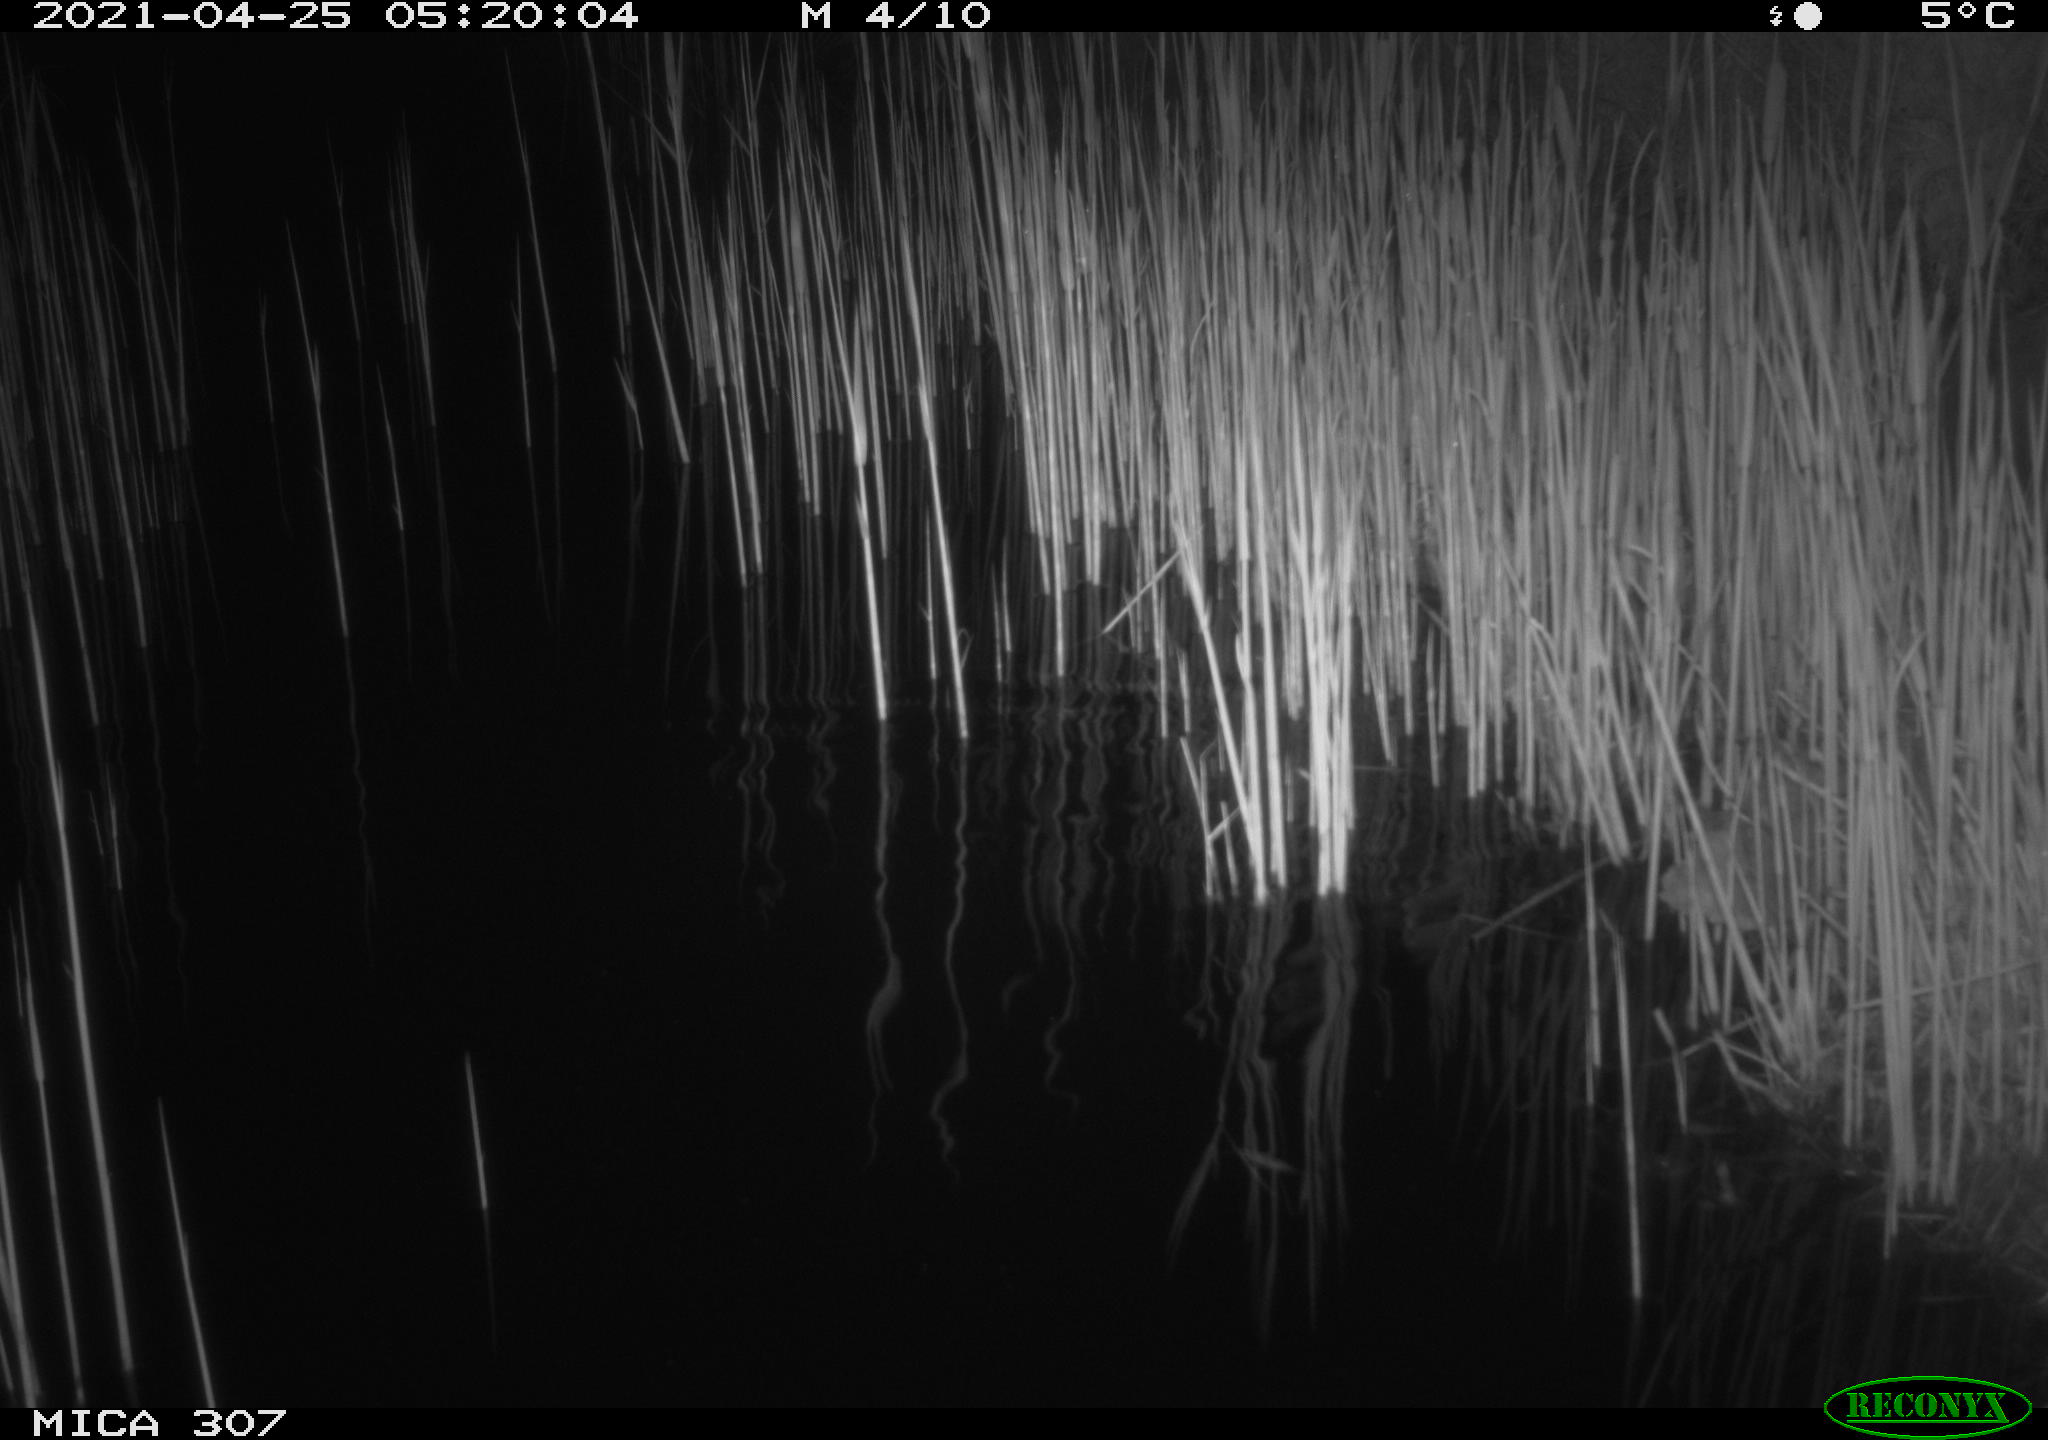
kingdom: Animalia
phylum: Chordata
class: Mammalia
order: Rodentia
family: Muridae
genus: Rattus
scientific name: Rattus norvegicus
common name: Brown rat
